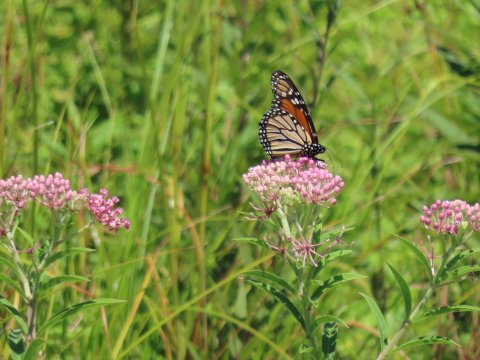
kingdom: Animalia
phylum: Arthropoda
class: Insecta
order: Lepidoptera
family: Nymphalidae
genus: Danaus
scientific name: Danaus plexippus
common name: Monarch
